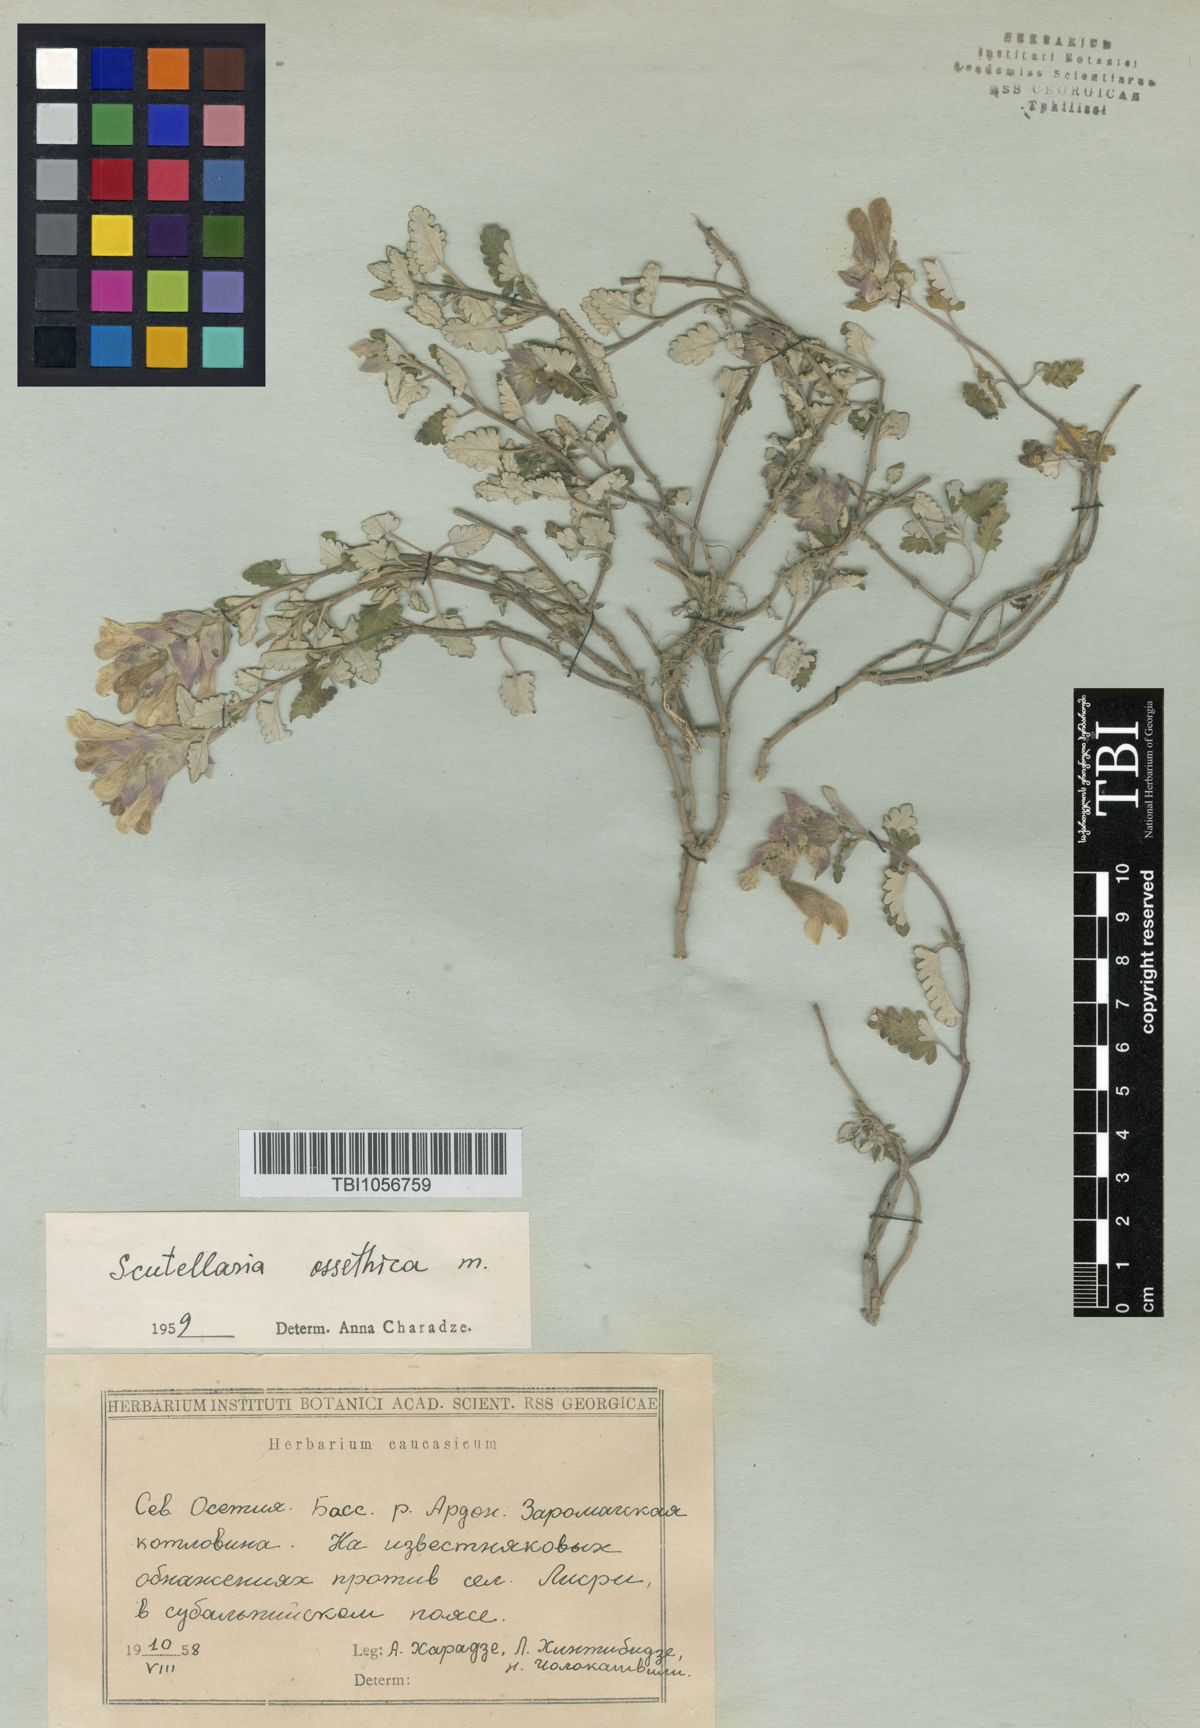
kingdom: Plantae
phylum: Tracheophyta
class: Magnoliopsida
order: Lamiales
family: Lamiaceae
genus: Scutellaria
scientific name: Scutellaria ossethica
